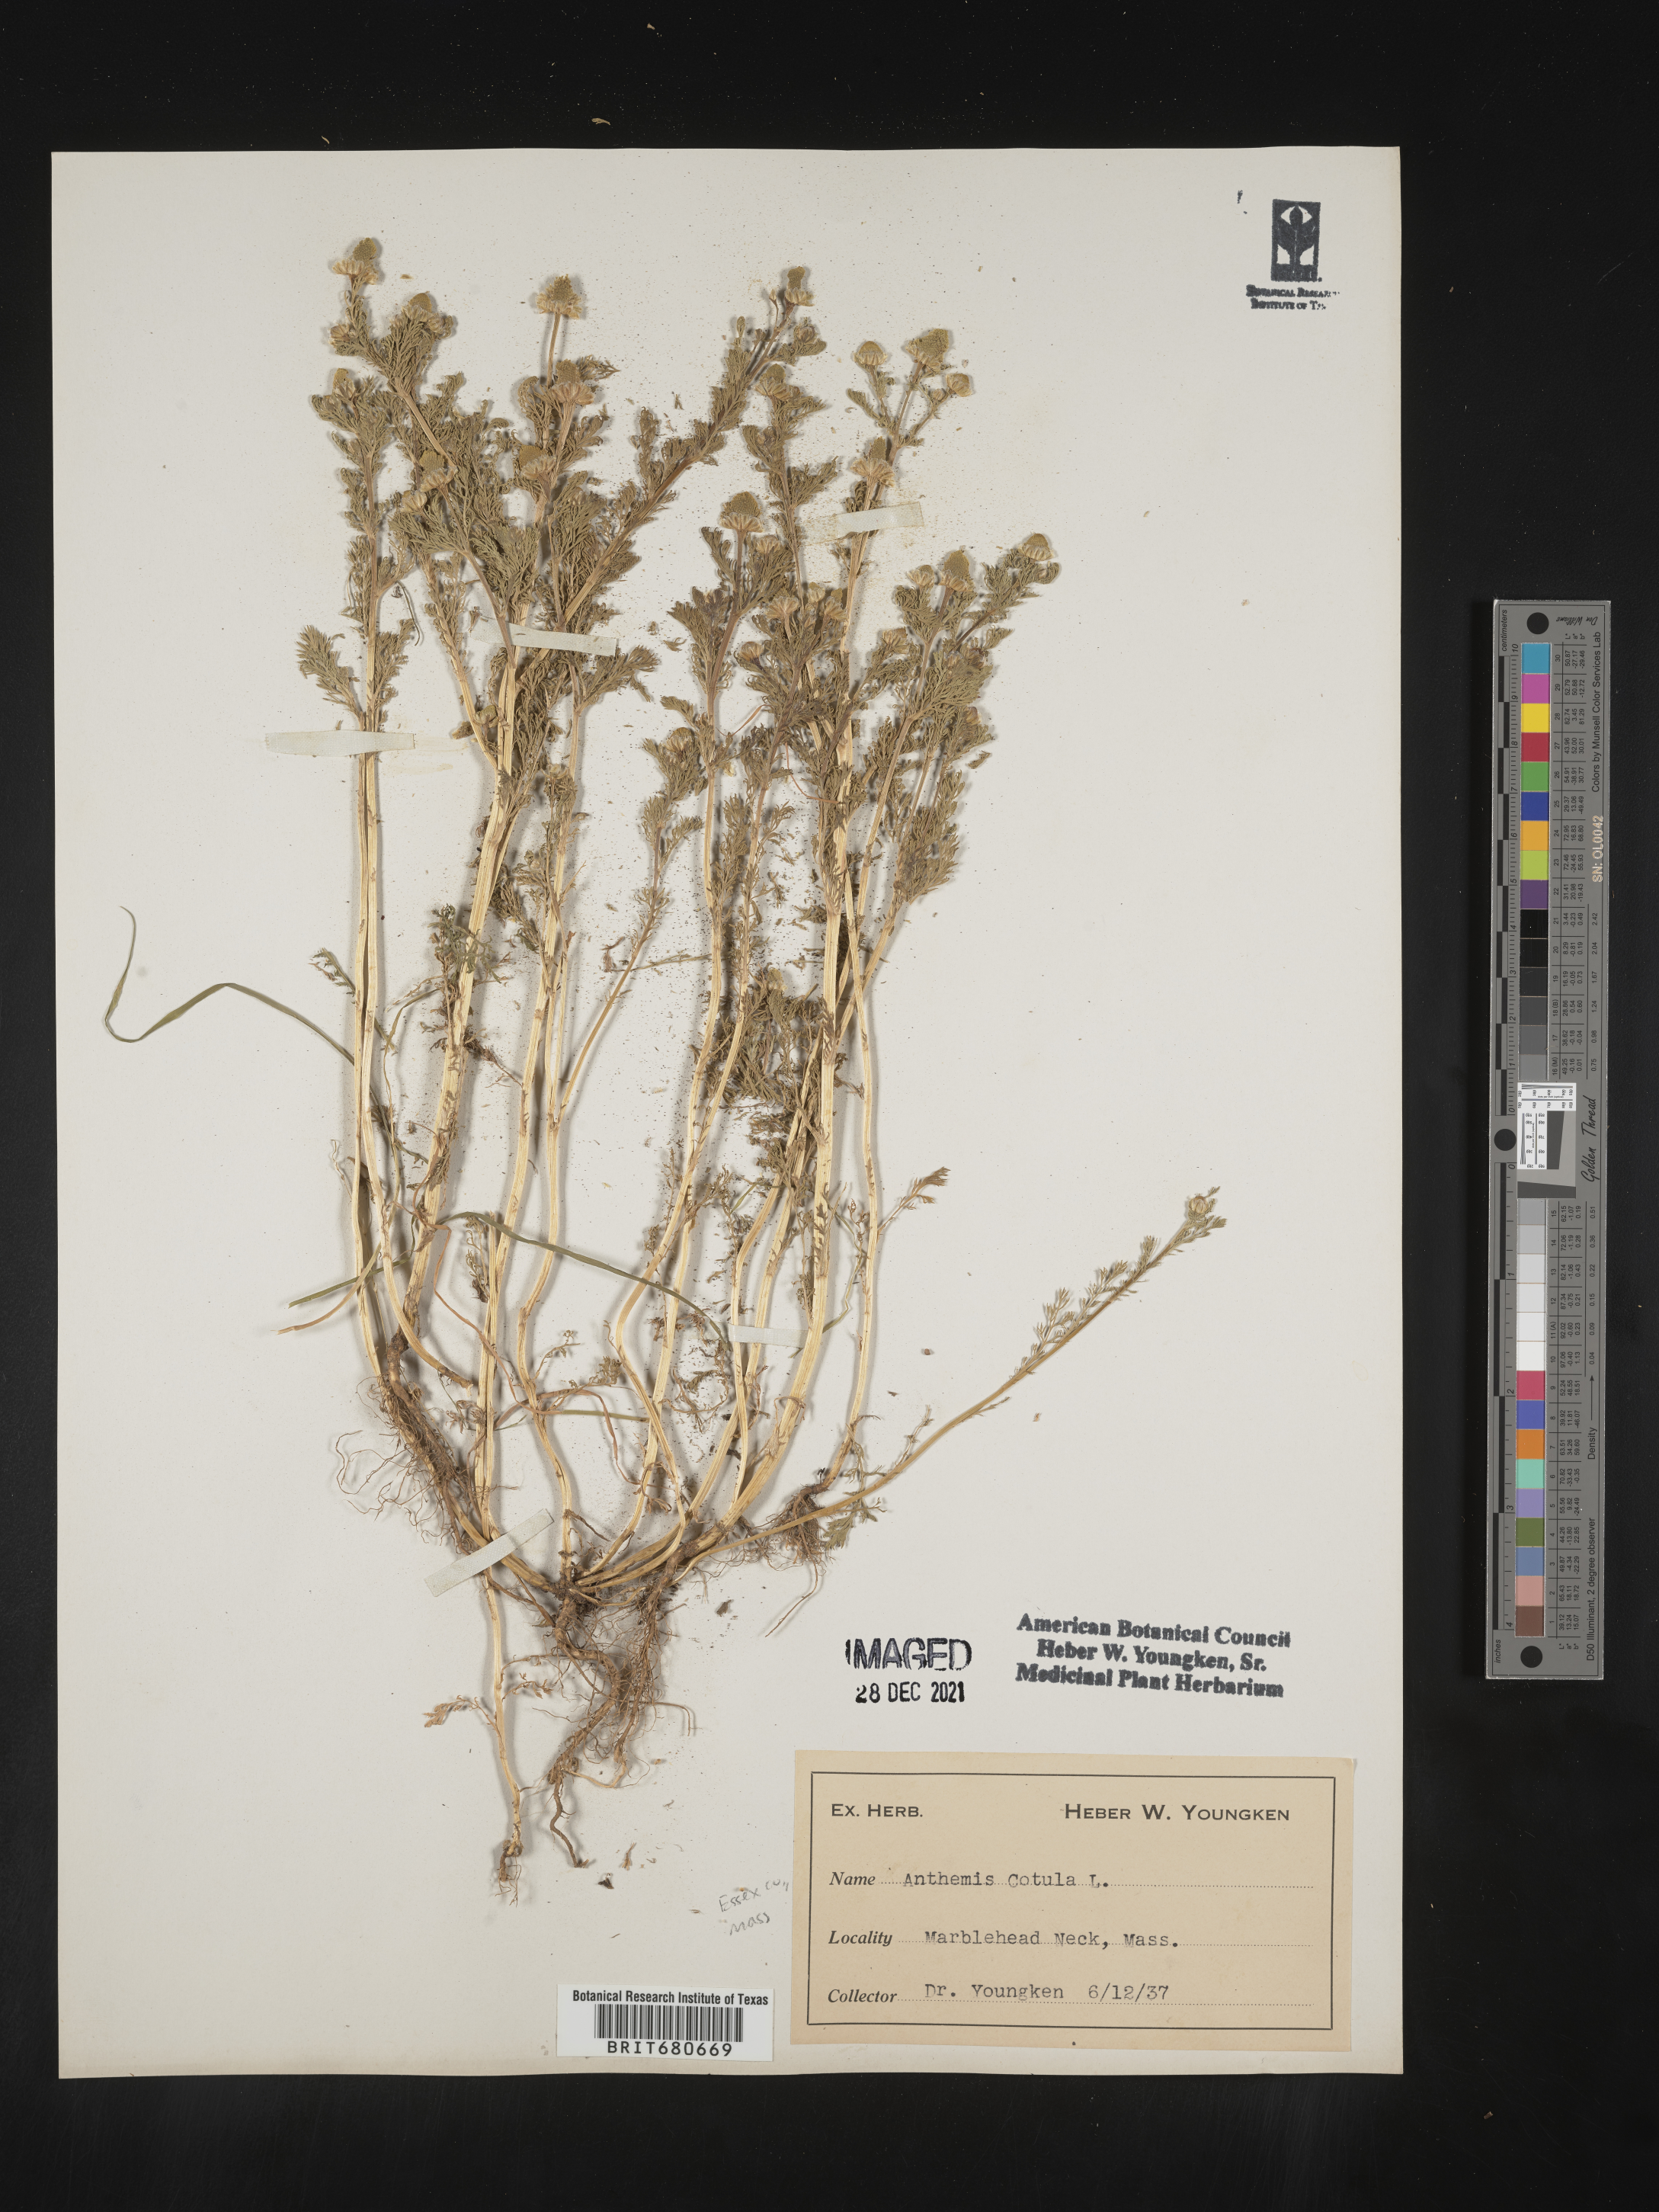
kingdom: Plantae
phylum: Tracheophyta
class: Magnoliopsida
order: Asterales
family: Asteraceae
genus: Anthemis
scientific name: Anthemis cotula
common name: Stinking chamomile
